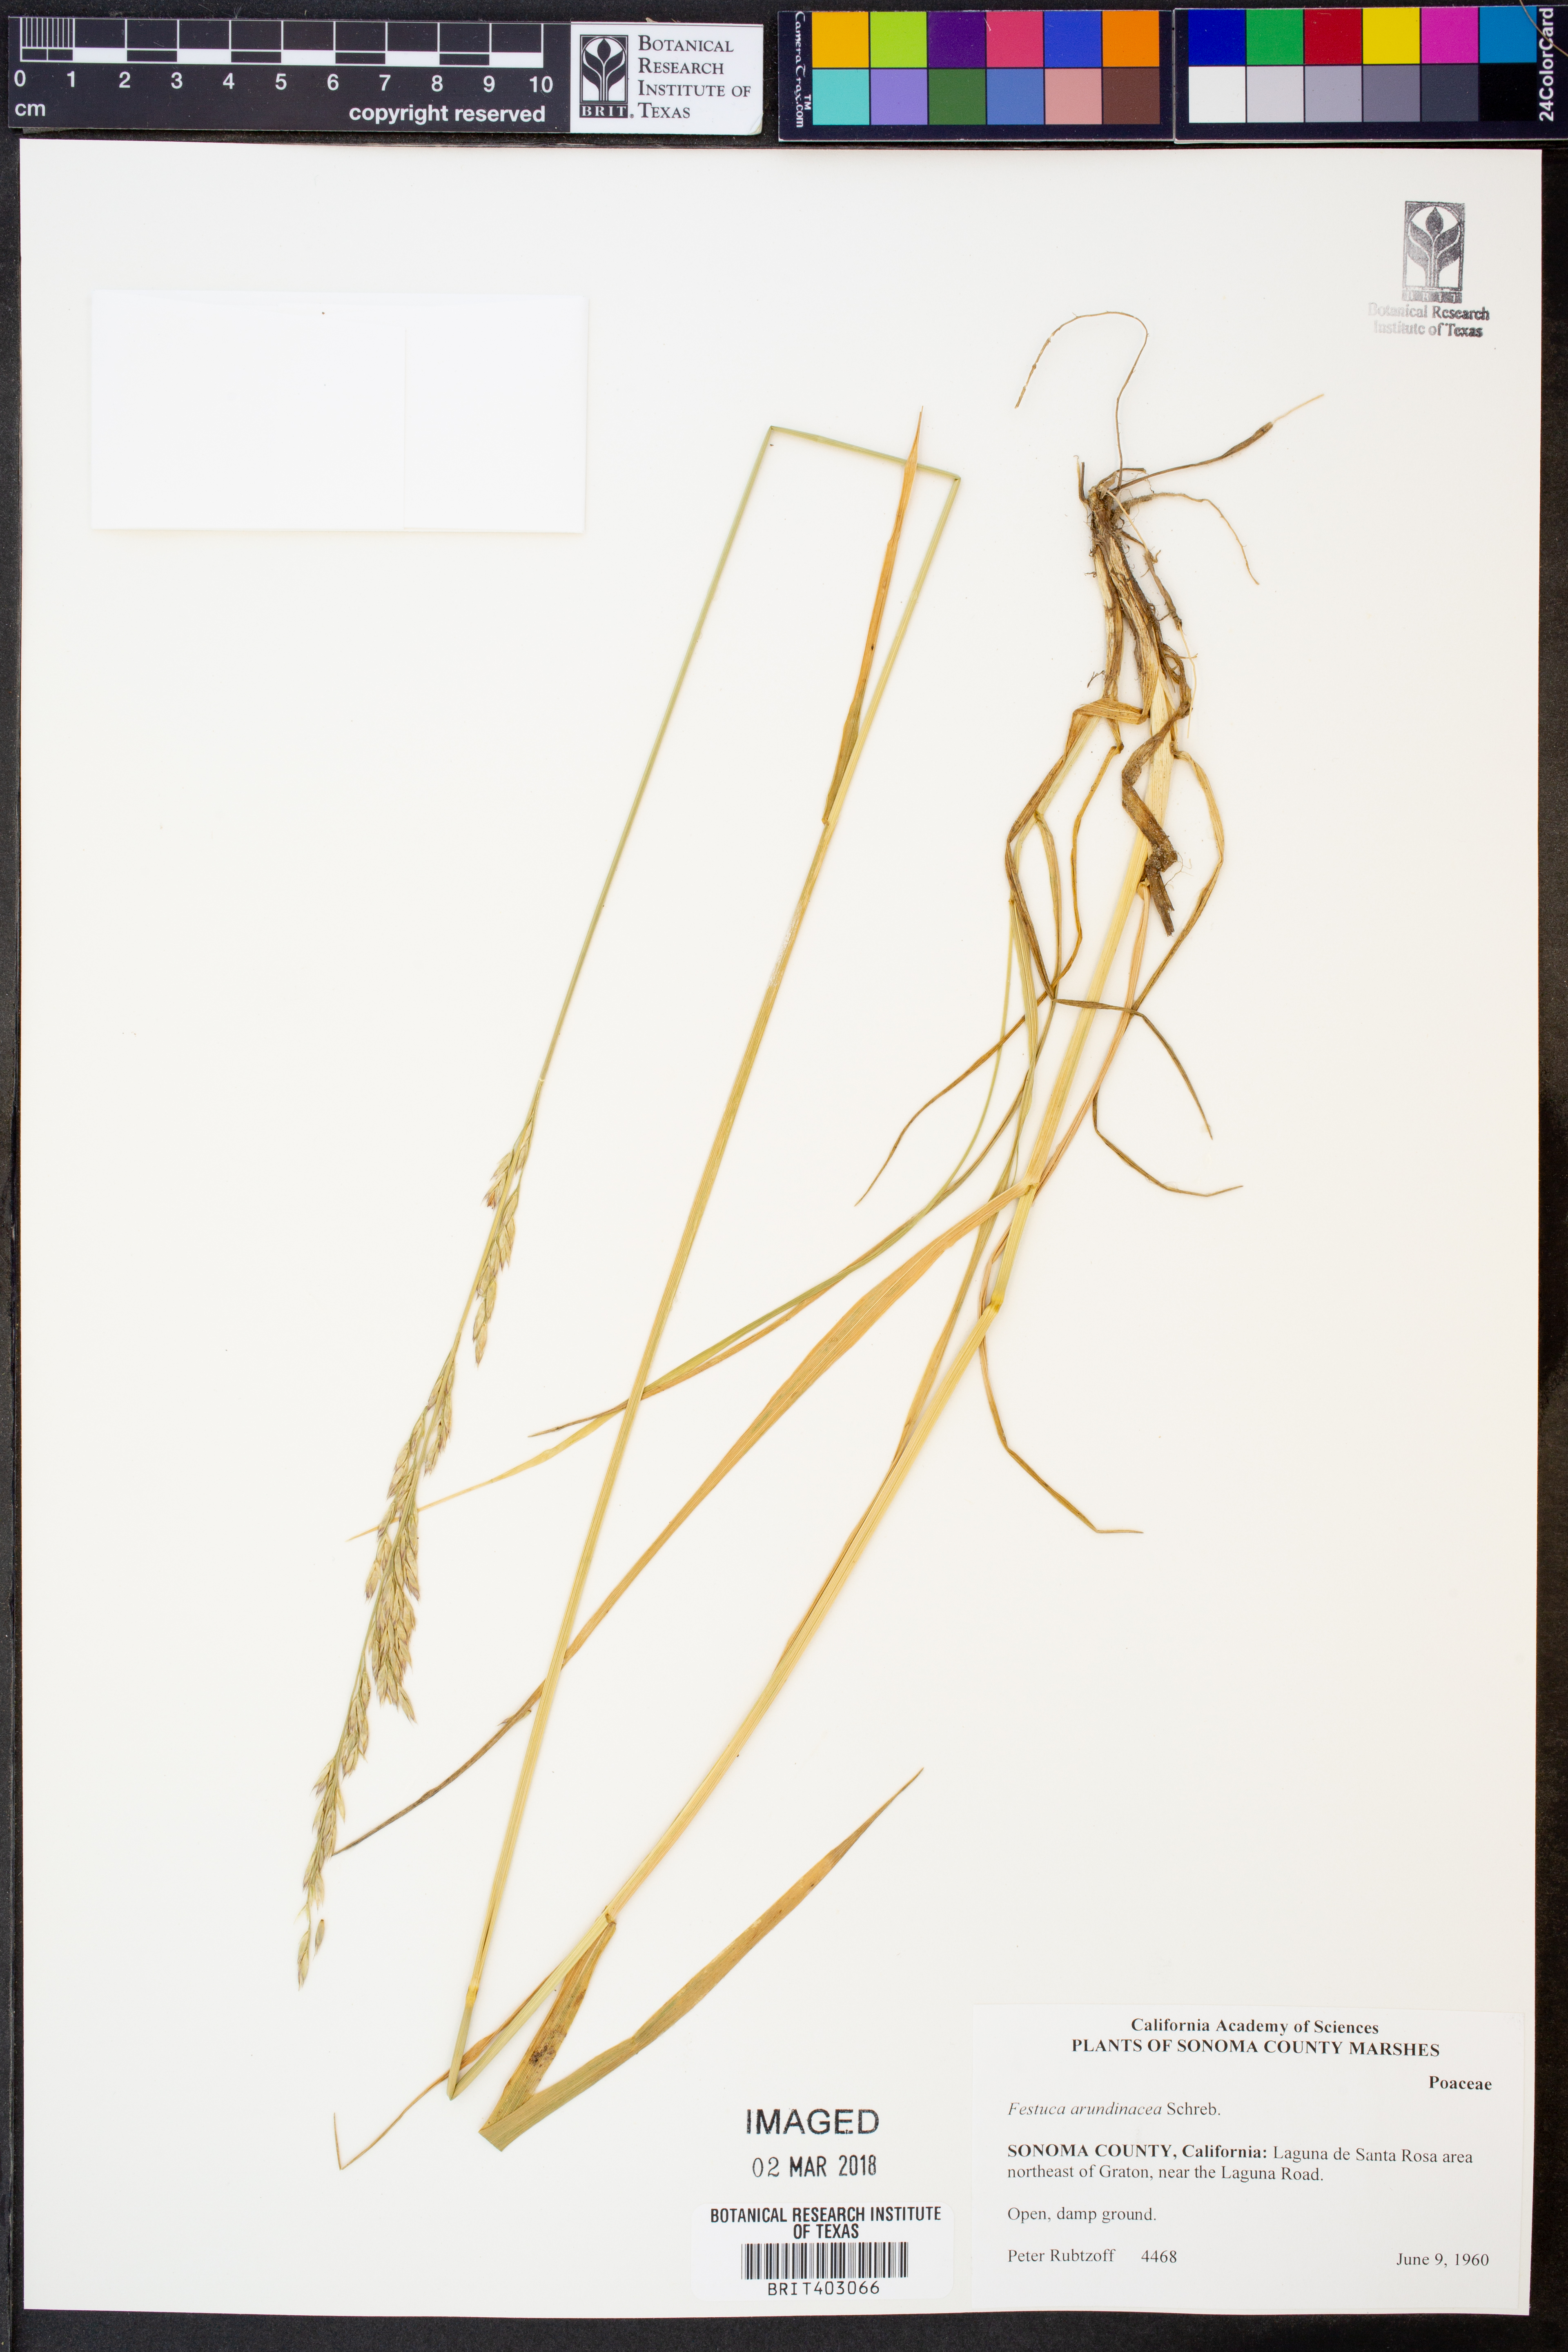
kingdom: Plantae
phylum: Tracheophyta
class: Liliopsida
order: Poales
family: Poaceae
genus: Lolium
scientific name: Lolium arundinaceum
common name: Reed fescue
